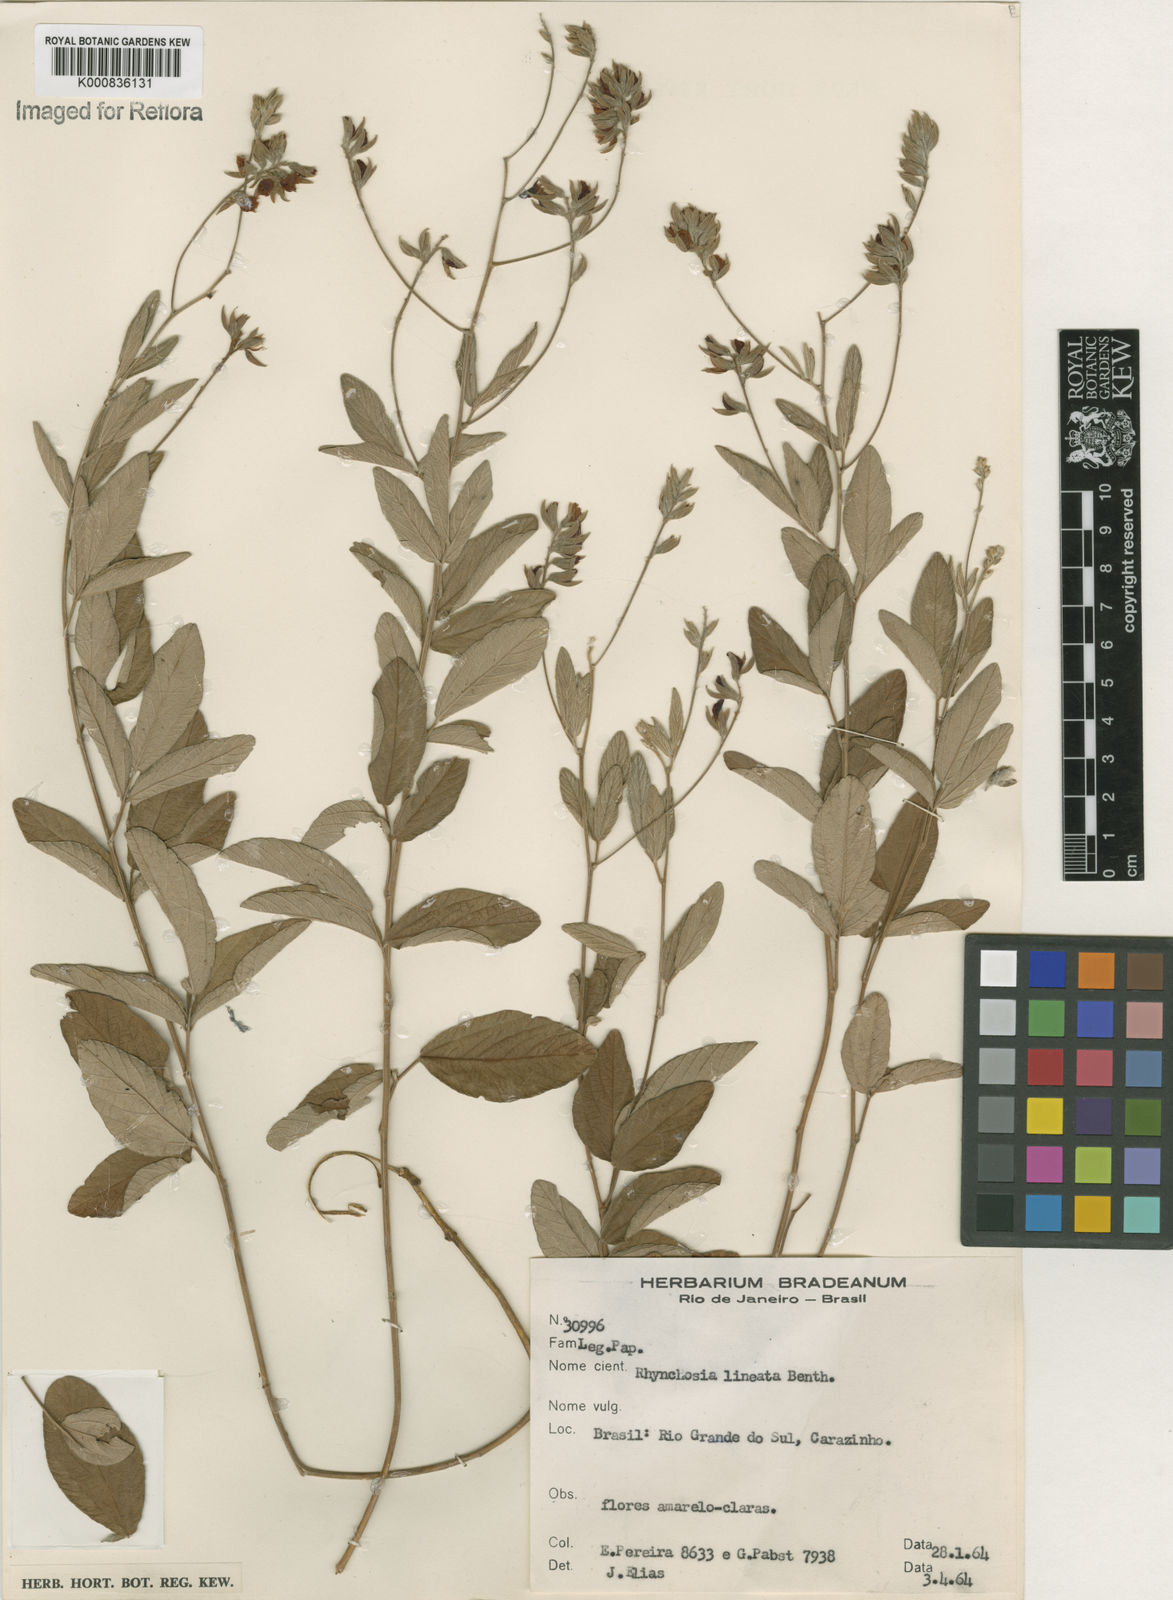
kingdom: Plantae
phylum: Tracheophyta
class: Magnoliopsida
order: Fabales
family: Fabaceae
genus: Rhynchosia
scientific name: Rhynchosia lineata
